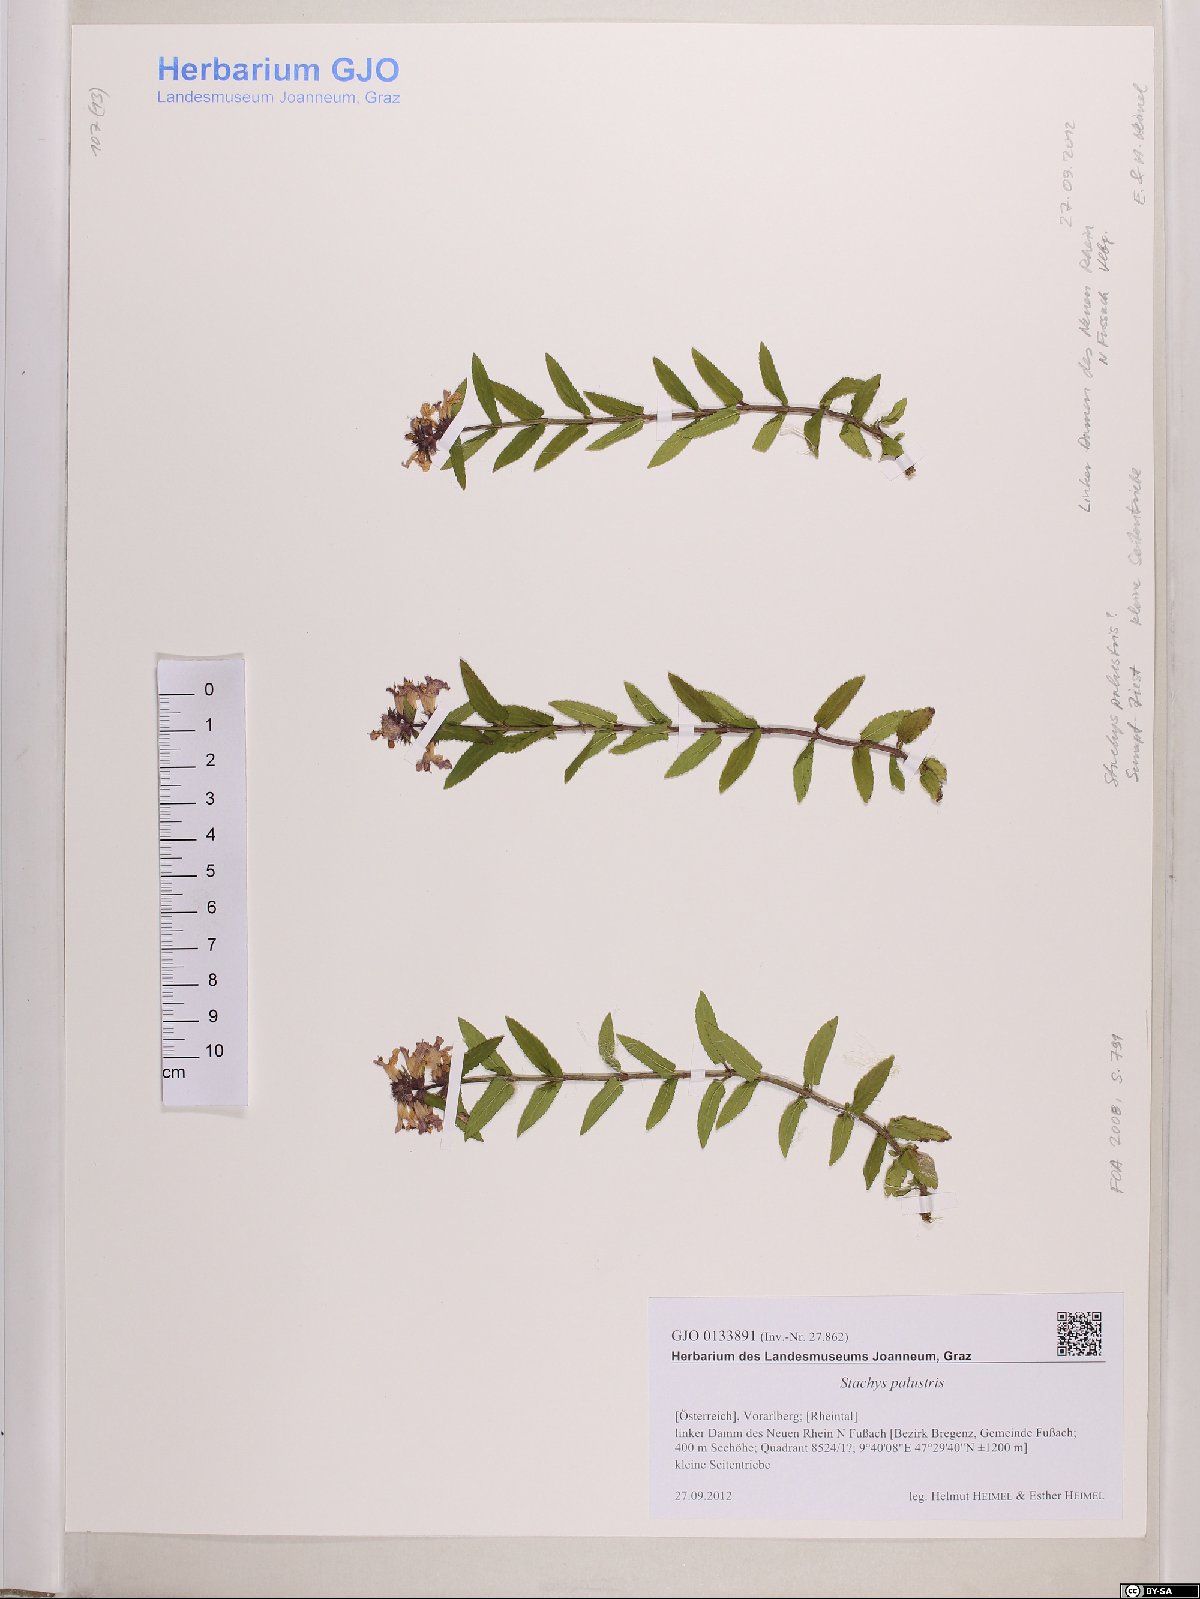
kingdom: Plantae
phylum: Tracheophyta
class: Magnoliopsida
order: Lamiales
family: Lamiaceae
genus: Stachys
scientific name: Stachys palustris
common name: Marsh woundwort
